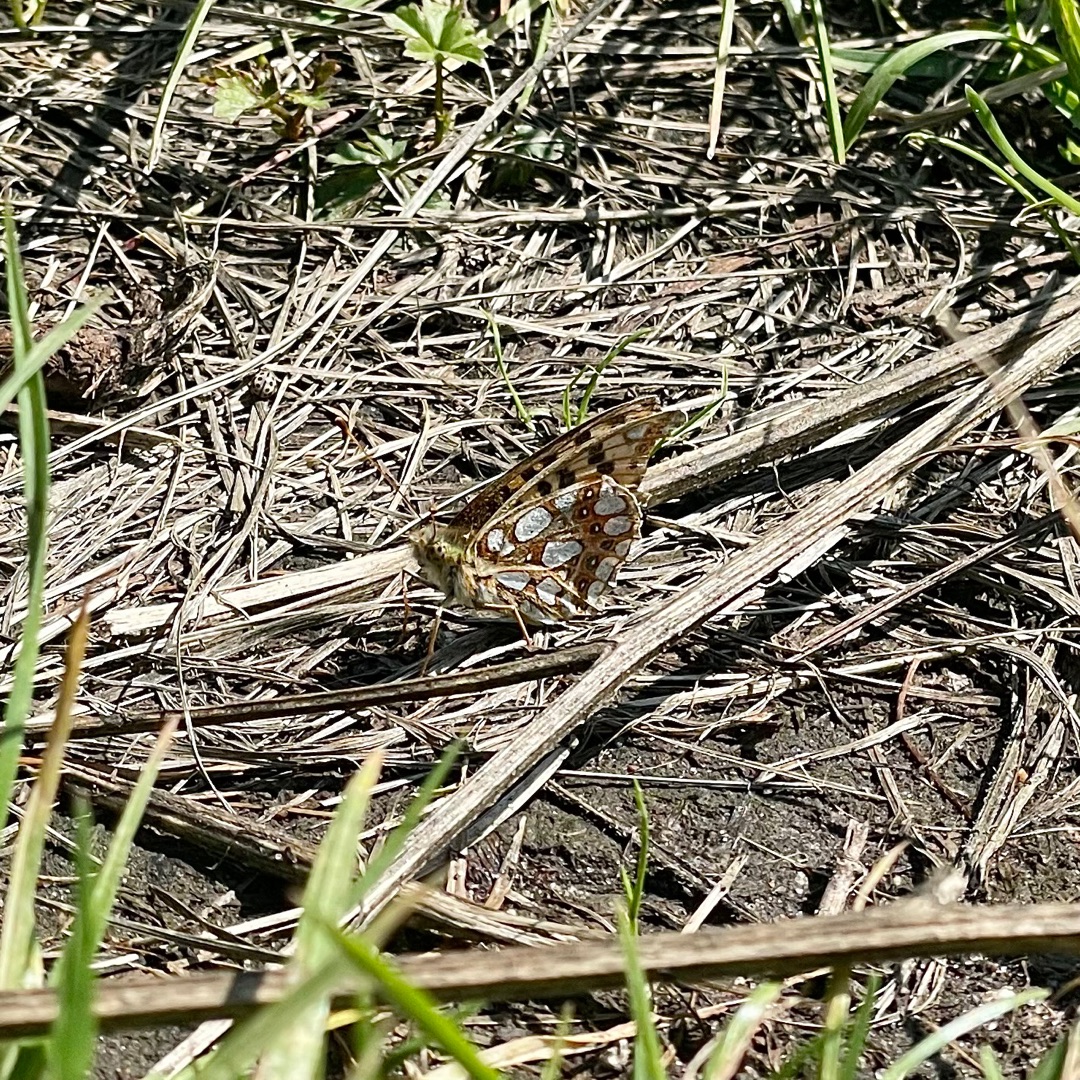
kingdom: Animalia
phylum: Arthropoda
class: Insecta
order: Lepidoptera
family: Nymphalidae
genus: Issoria
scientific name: Issoria lathonia
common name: Storplettet perlemorsommerfugl
